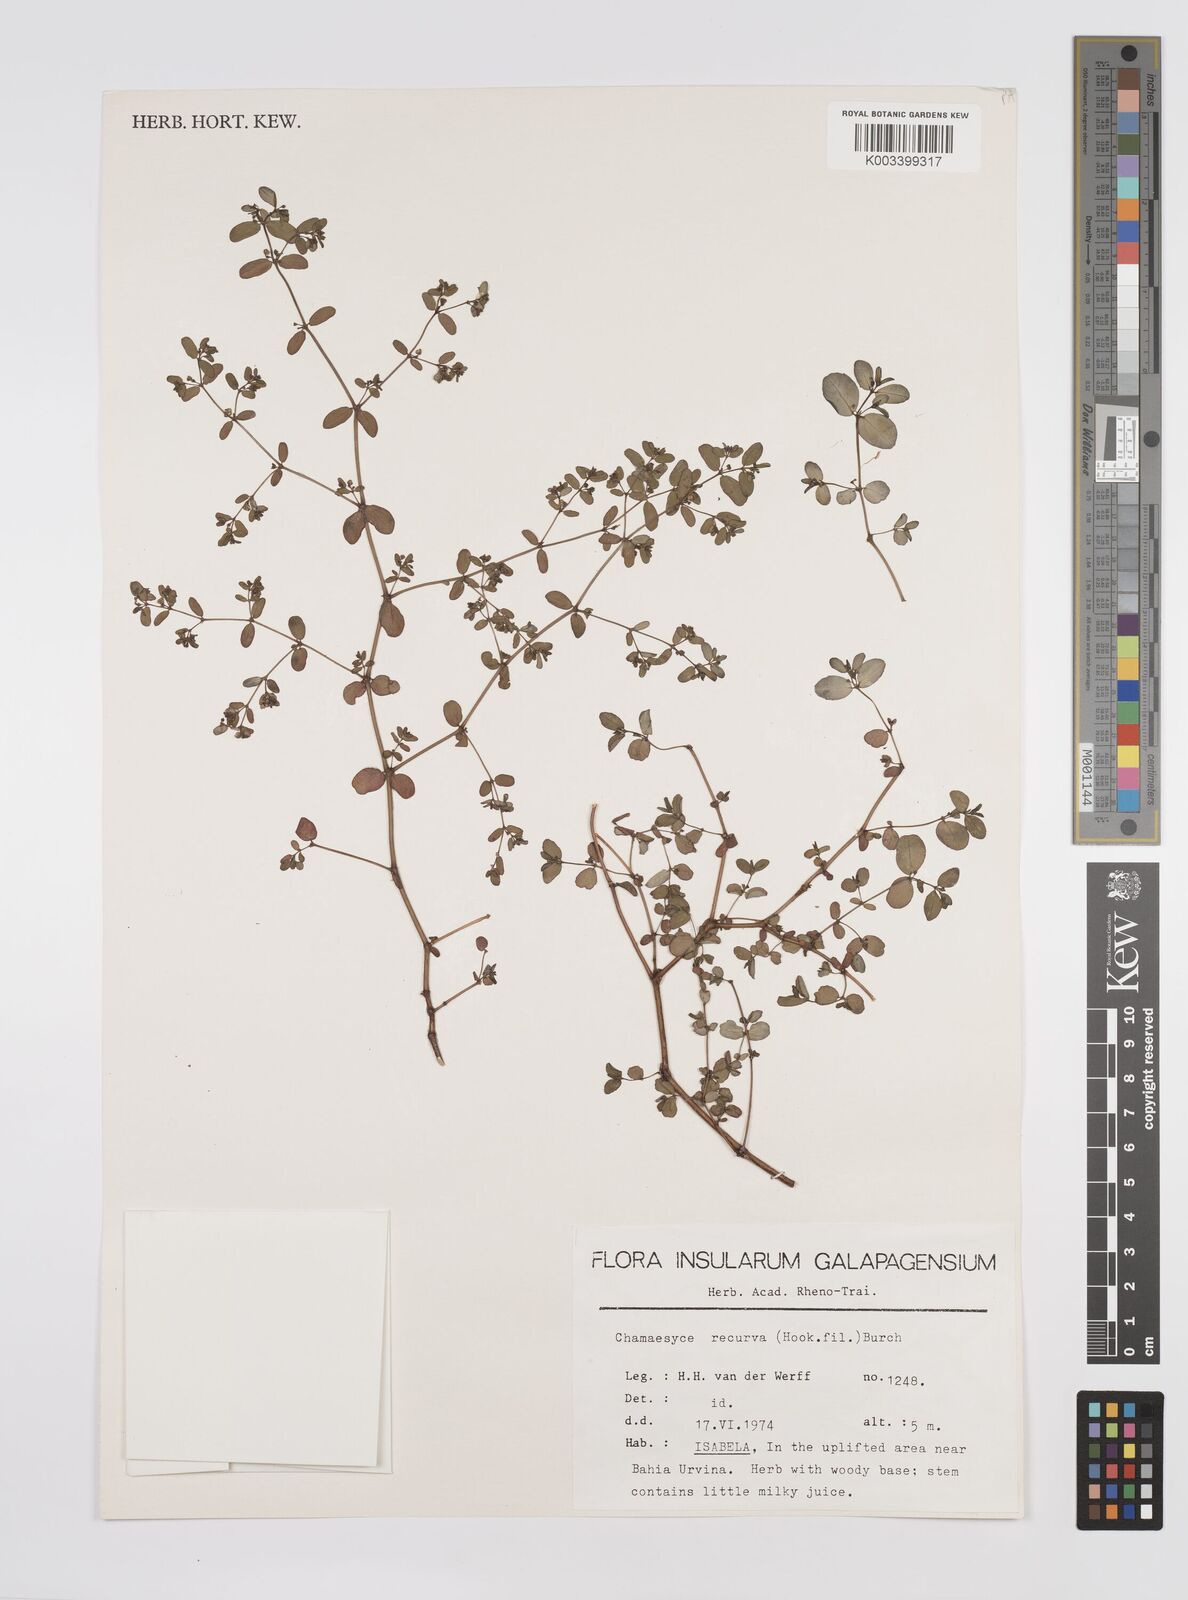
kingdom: Plantae
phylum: Tracheophyta
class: Magnoliopsida
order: Malpighiales
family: Euphorbiaceae
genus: Euphorbia
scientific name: Euphorbia recurva
